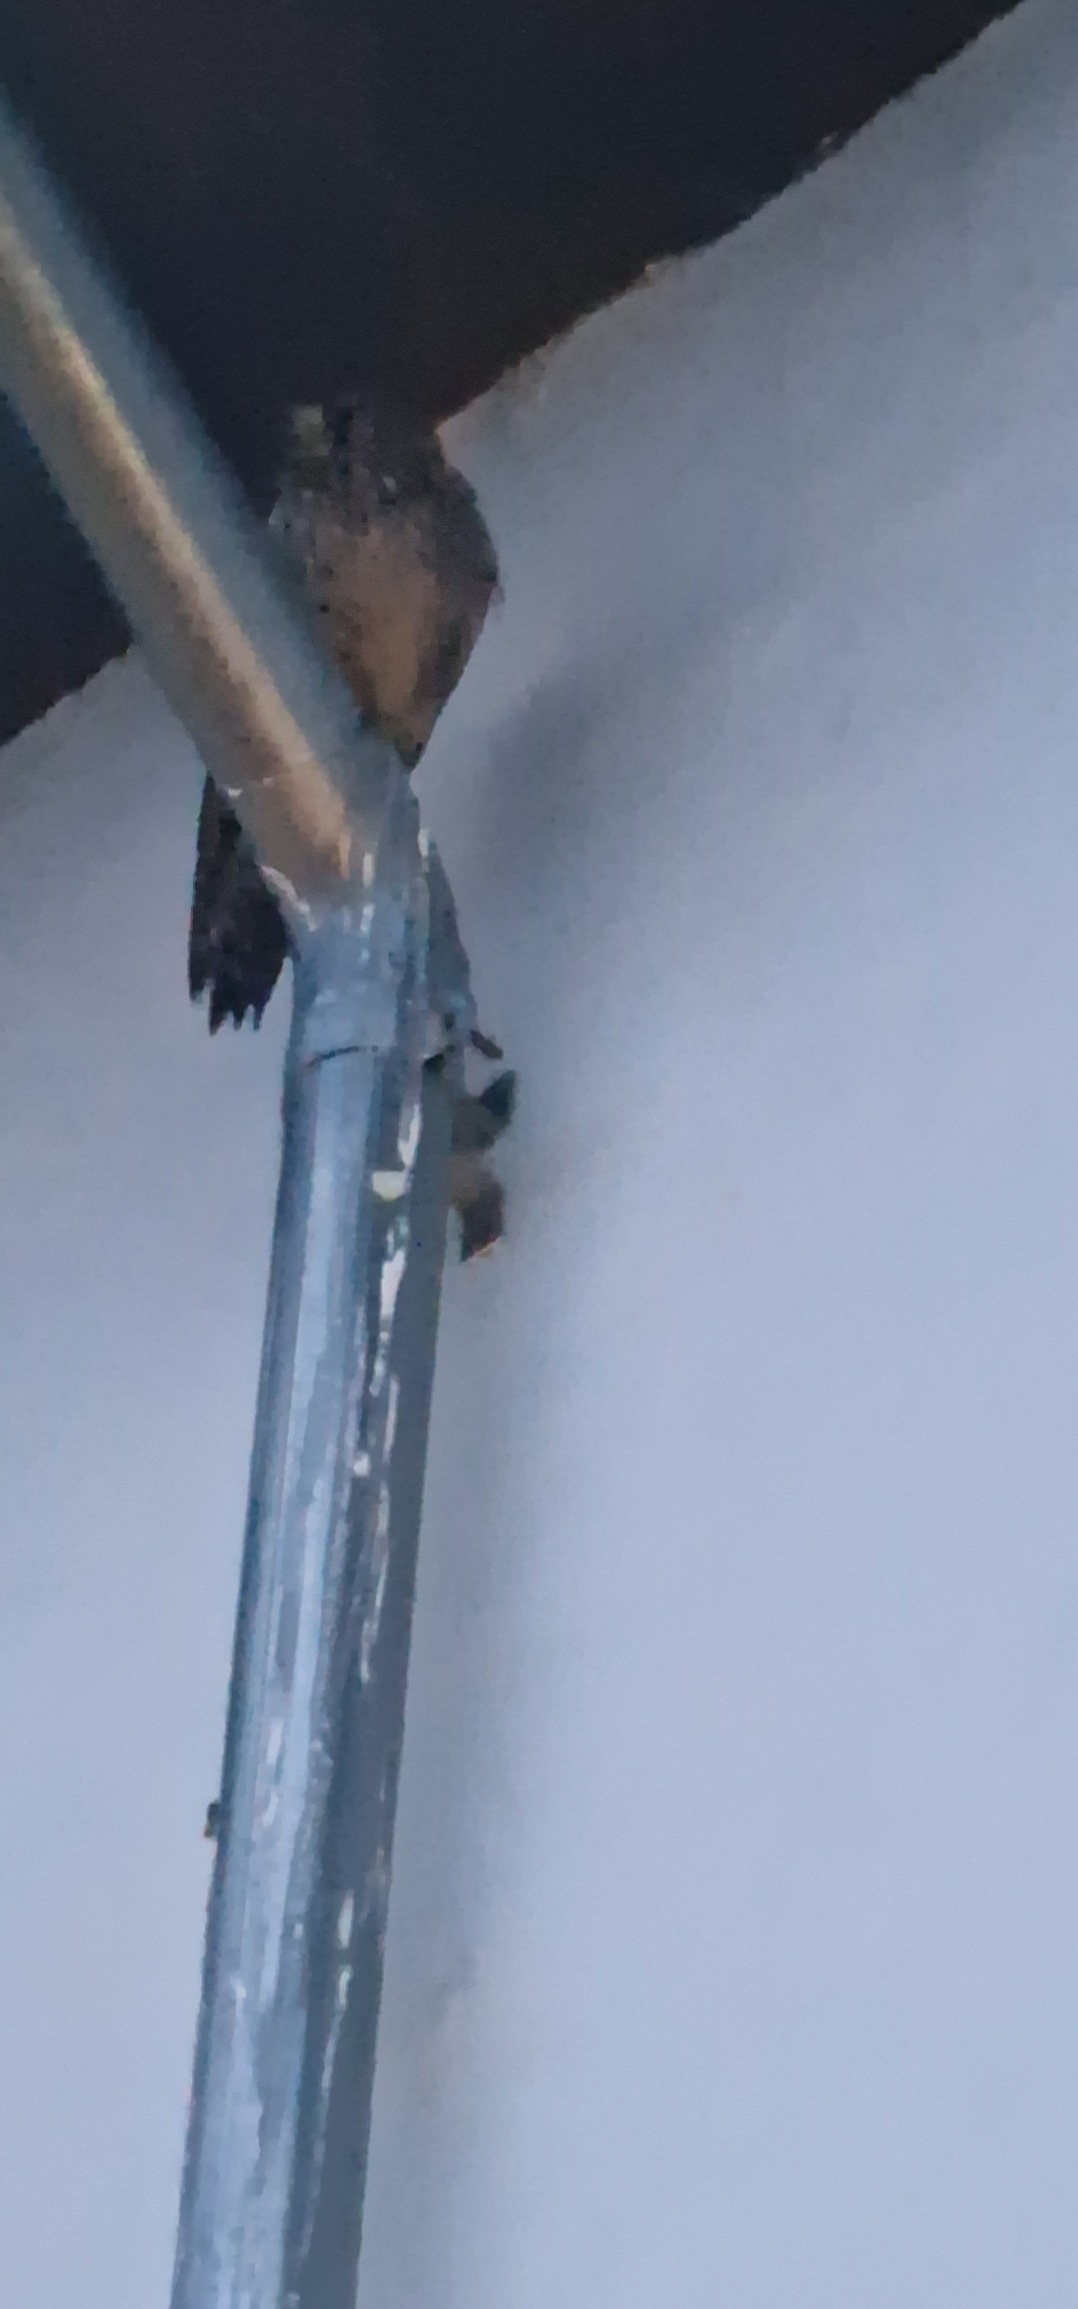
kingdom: Animalia
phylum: Chordata
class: Aves
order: Falconiformes
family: Falconidae
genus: Falco
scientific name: Falco tinnunculus
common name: Tårnfalk
